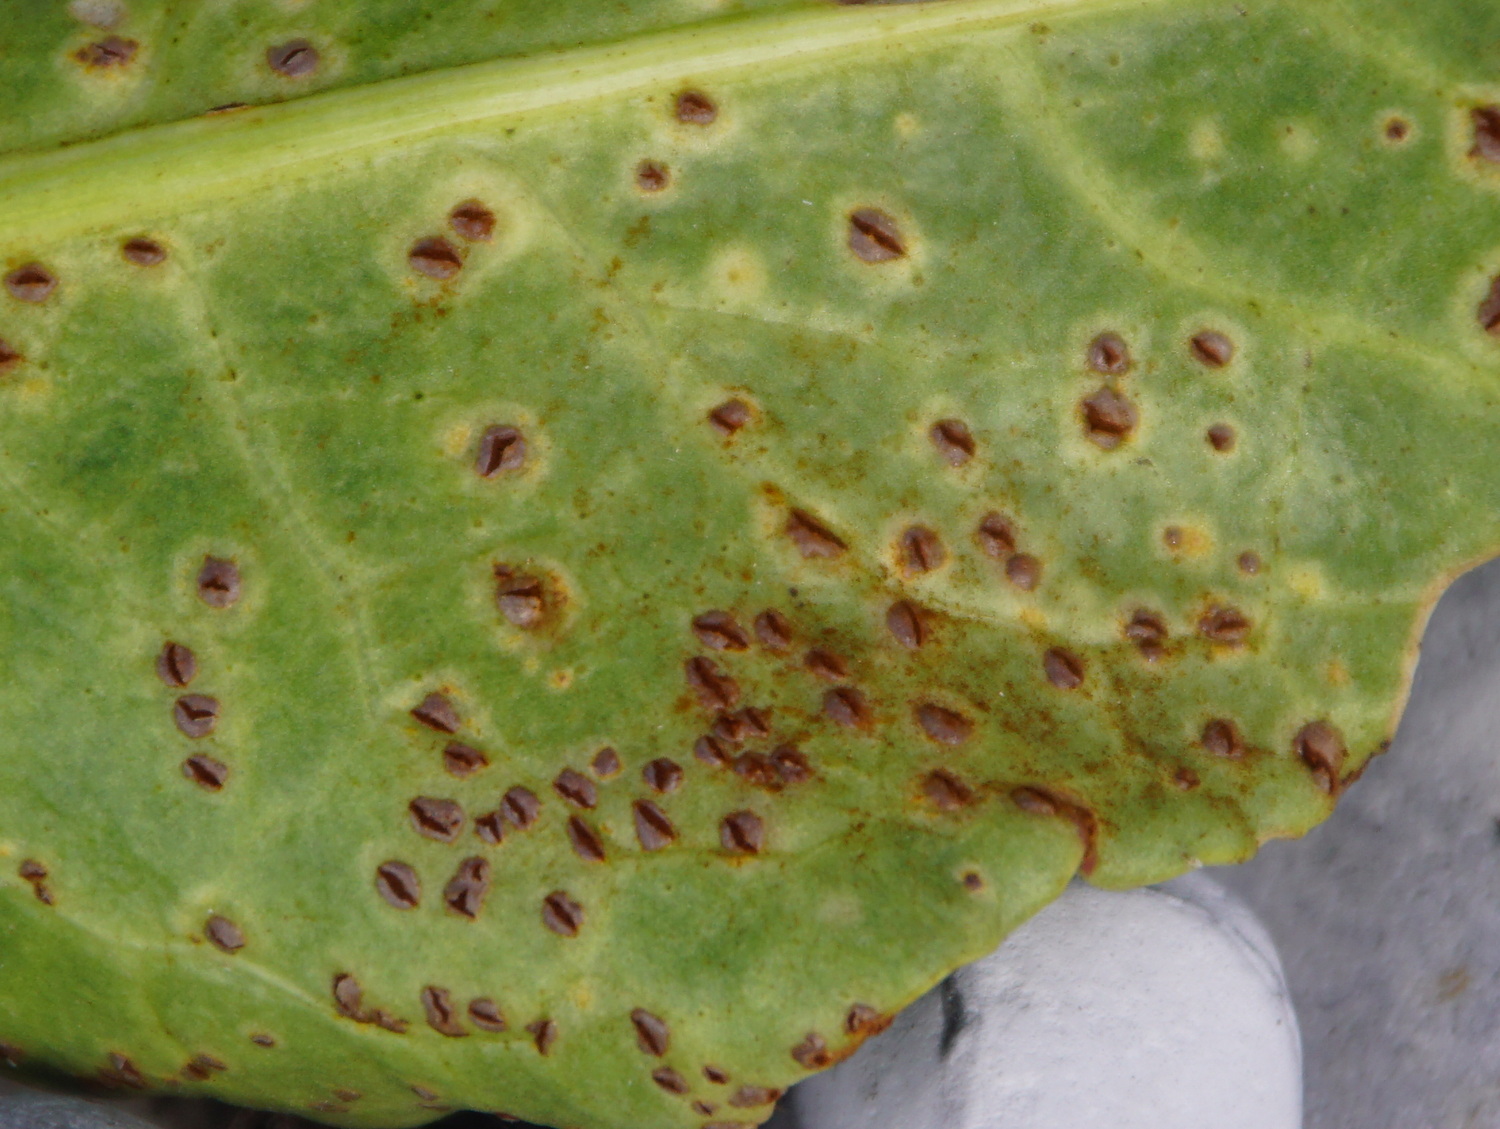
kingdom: Fungi
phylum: Basidiomycota
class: Pucciniomycetes
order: Pucciniales
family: Pucciniaceae
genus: Uromyces
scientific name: Uromyces betae
